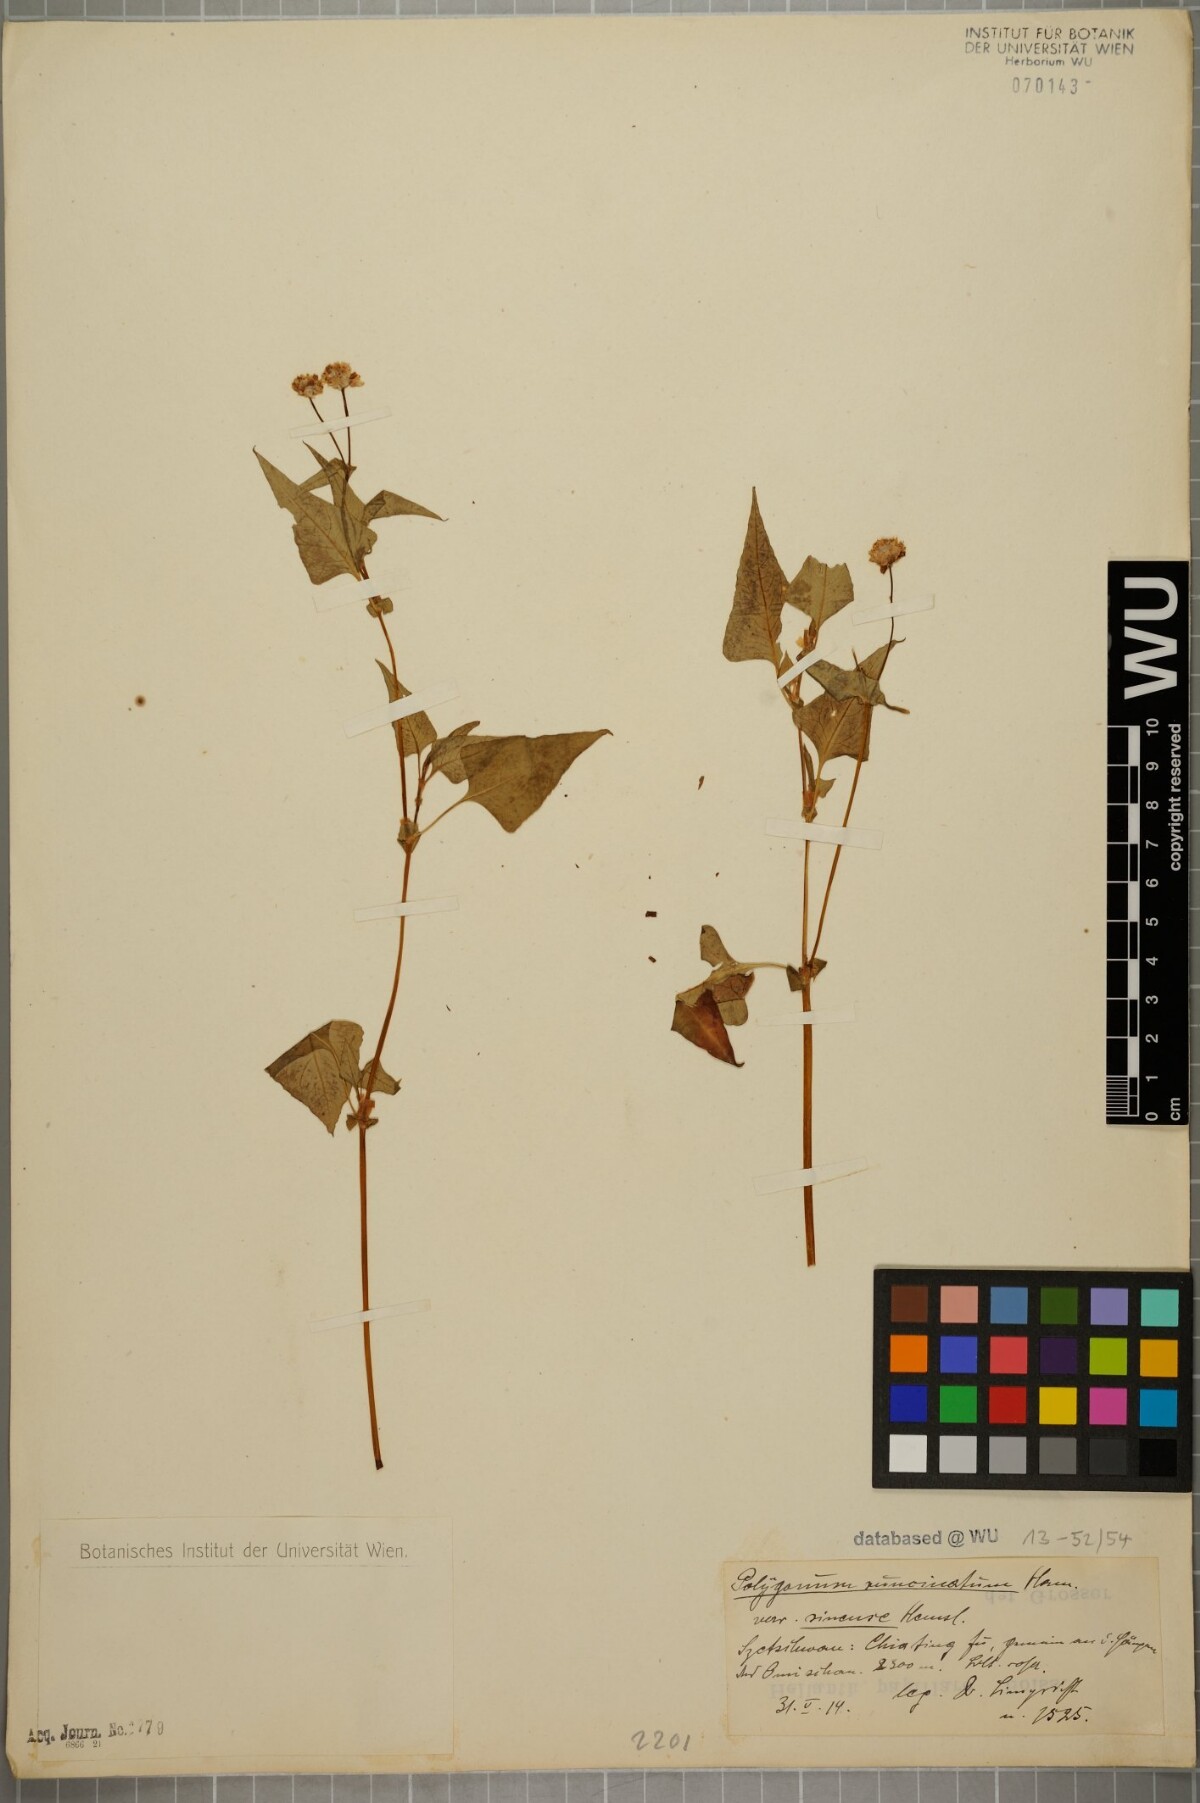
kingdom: Plantae
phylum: Tracheophyta
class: Magnoliopsida
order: Caryophyllales
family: Polygonaceae
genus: Persicaria
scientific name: Persicaria runcinata
